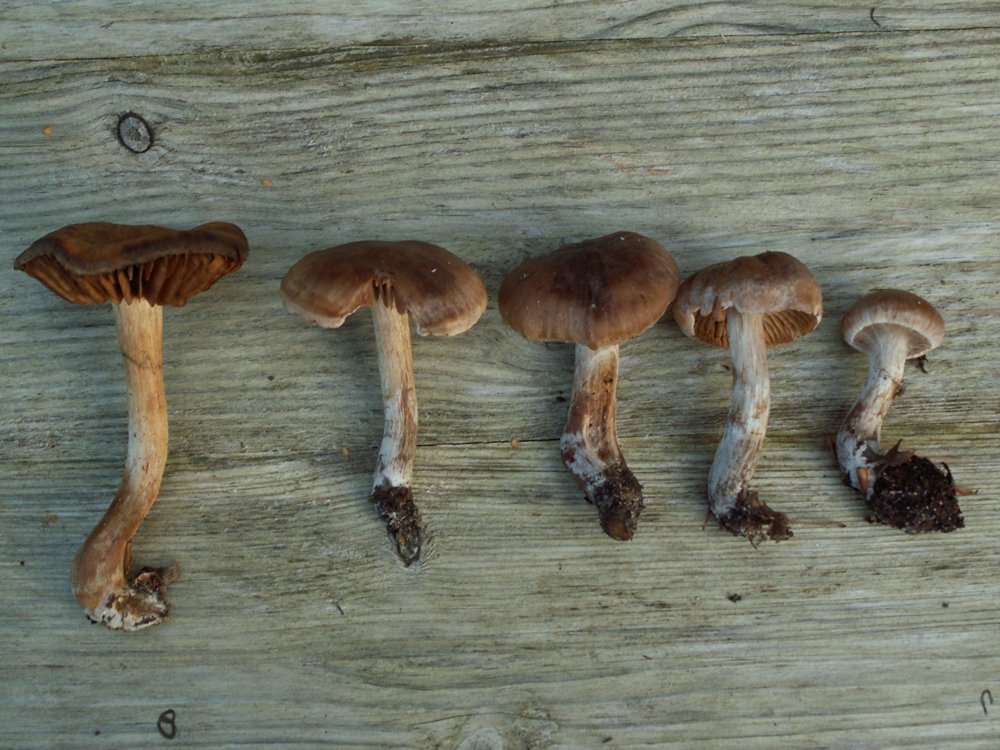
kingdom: Fungi
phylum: Basidiomycota
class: Agaricomycetes
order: Agaricales
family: Cortinariaceae
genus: Cortinarius
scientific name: Cortinarius epipurrus
